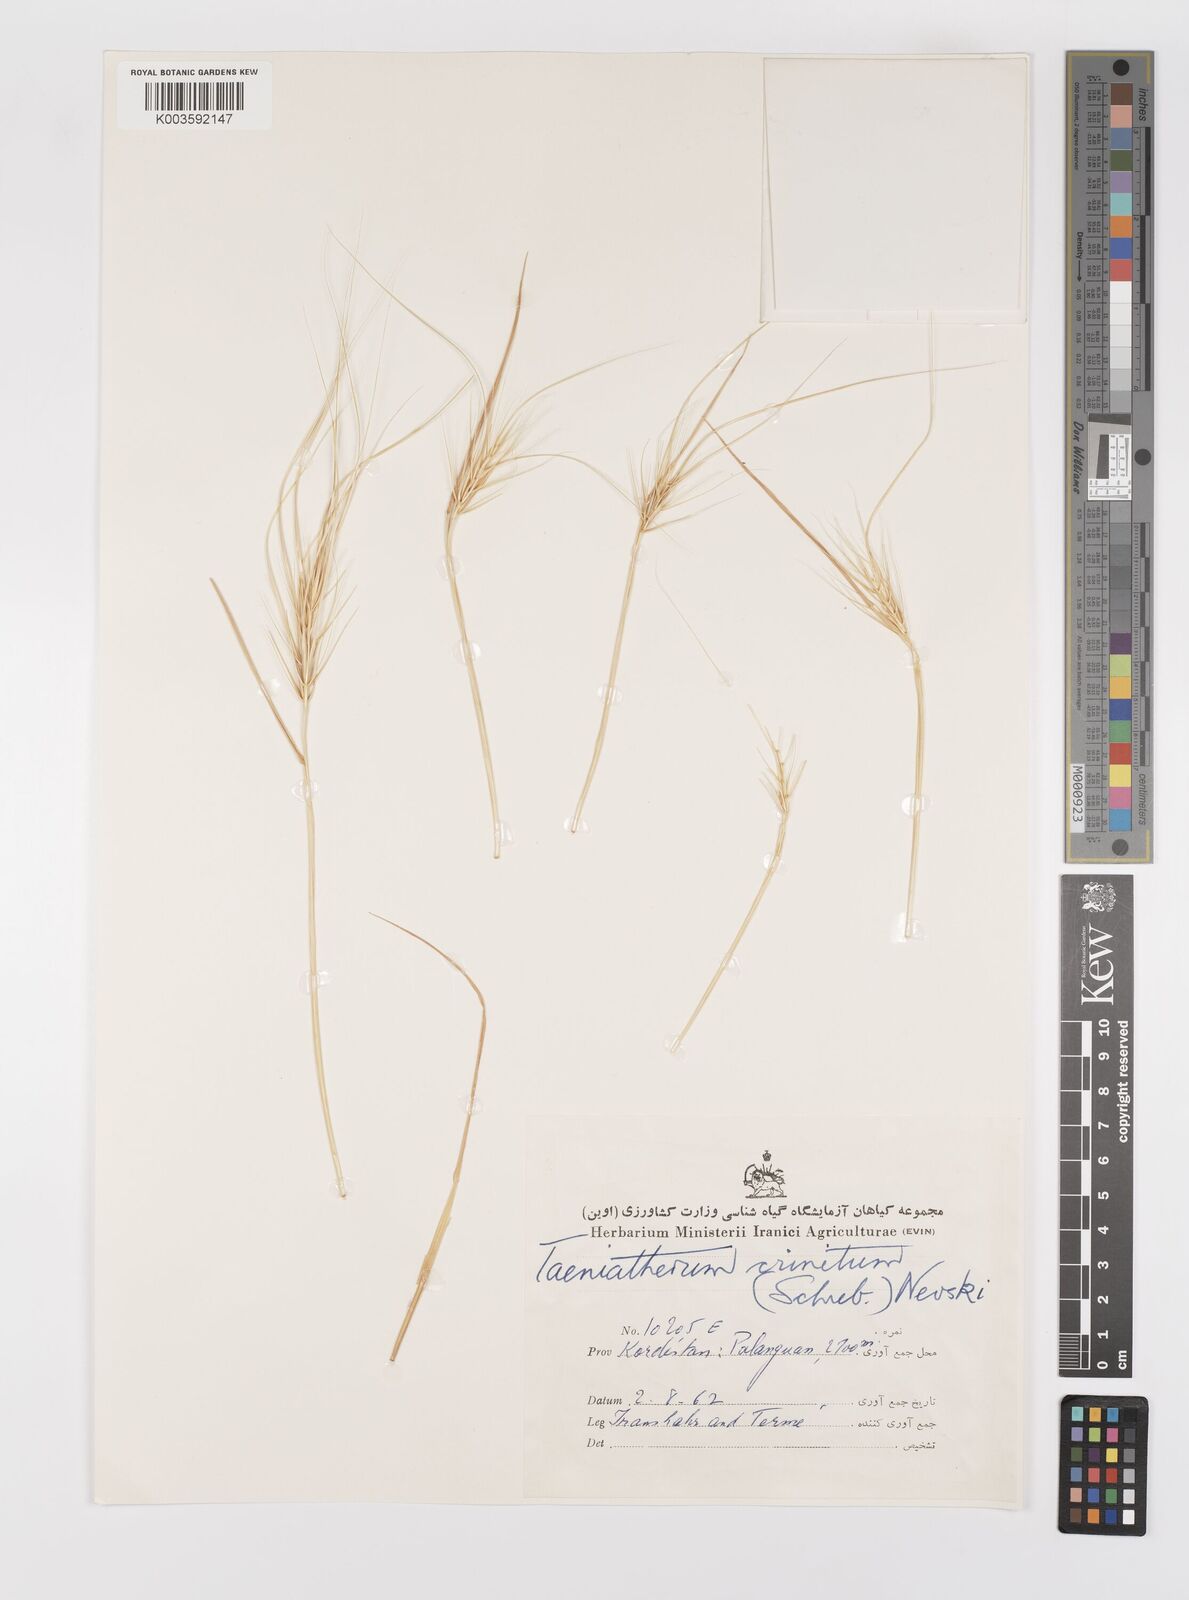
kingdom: Plantae
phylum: Tracheophyta
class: Liliopsida
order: Poales
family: Poaceae
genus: Taeniatherum
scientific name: Taeniatherum caput-medusae
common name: Medusahead
